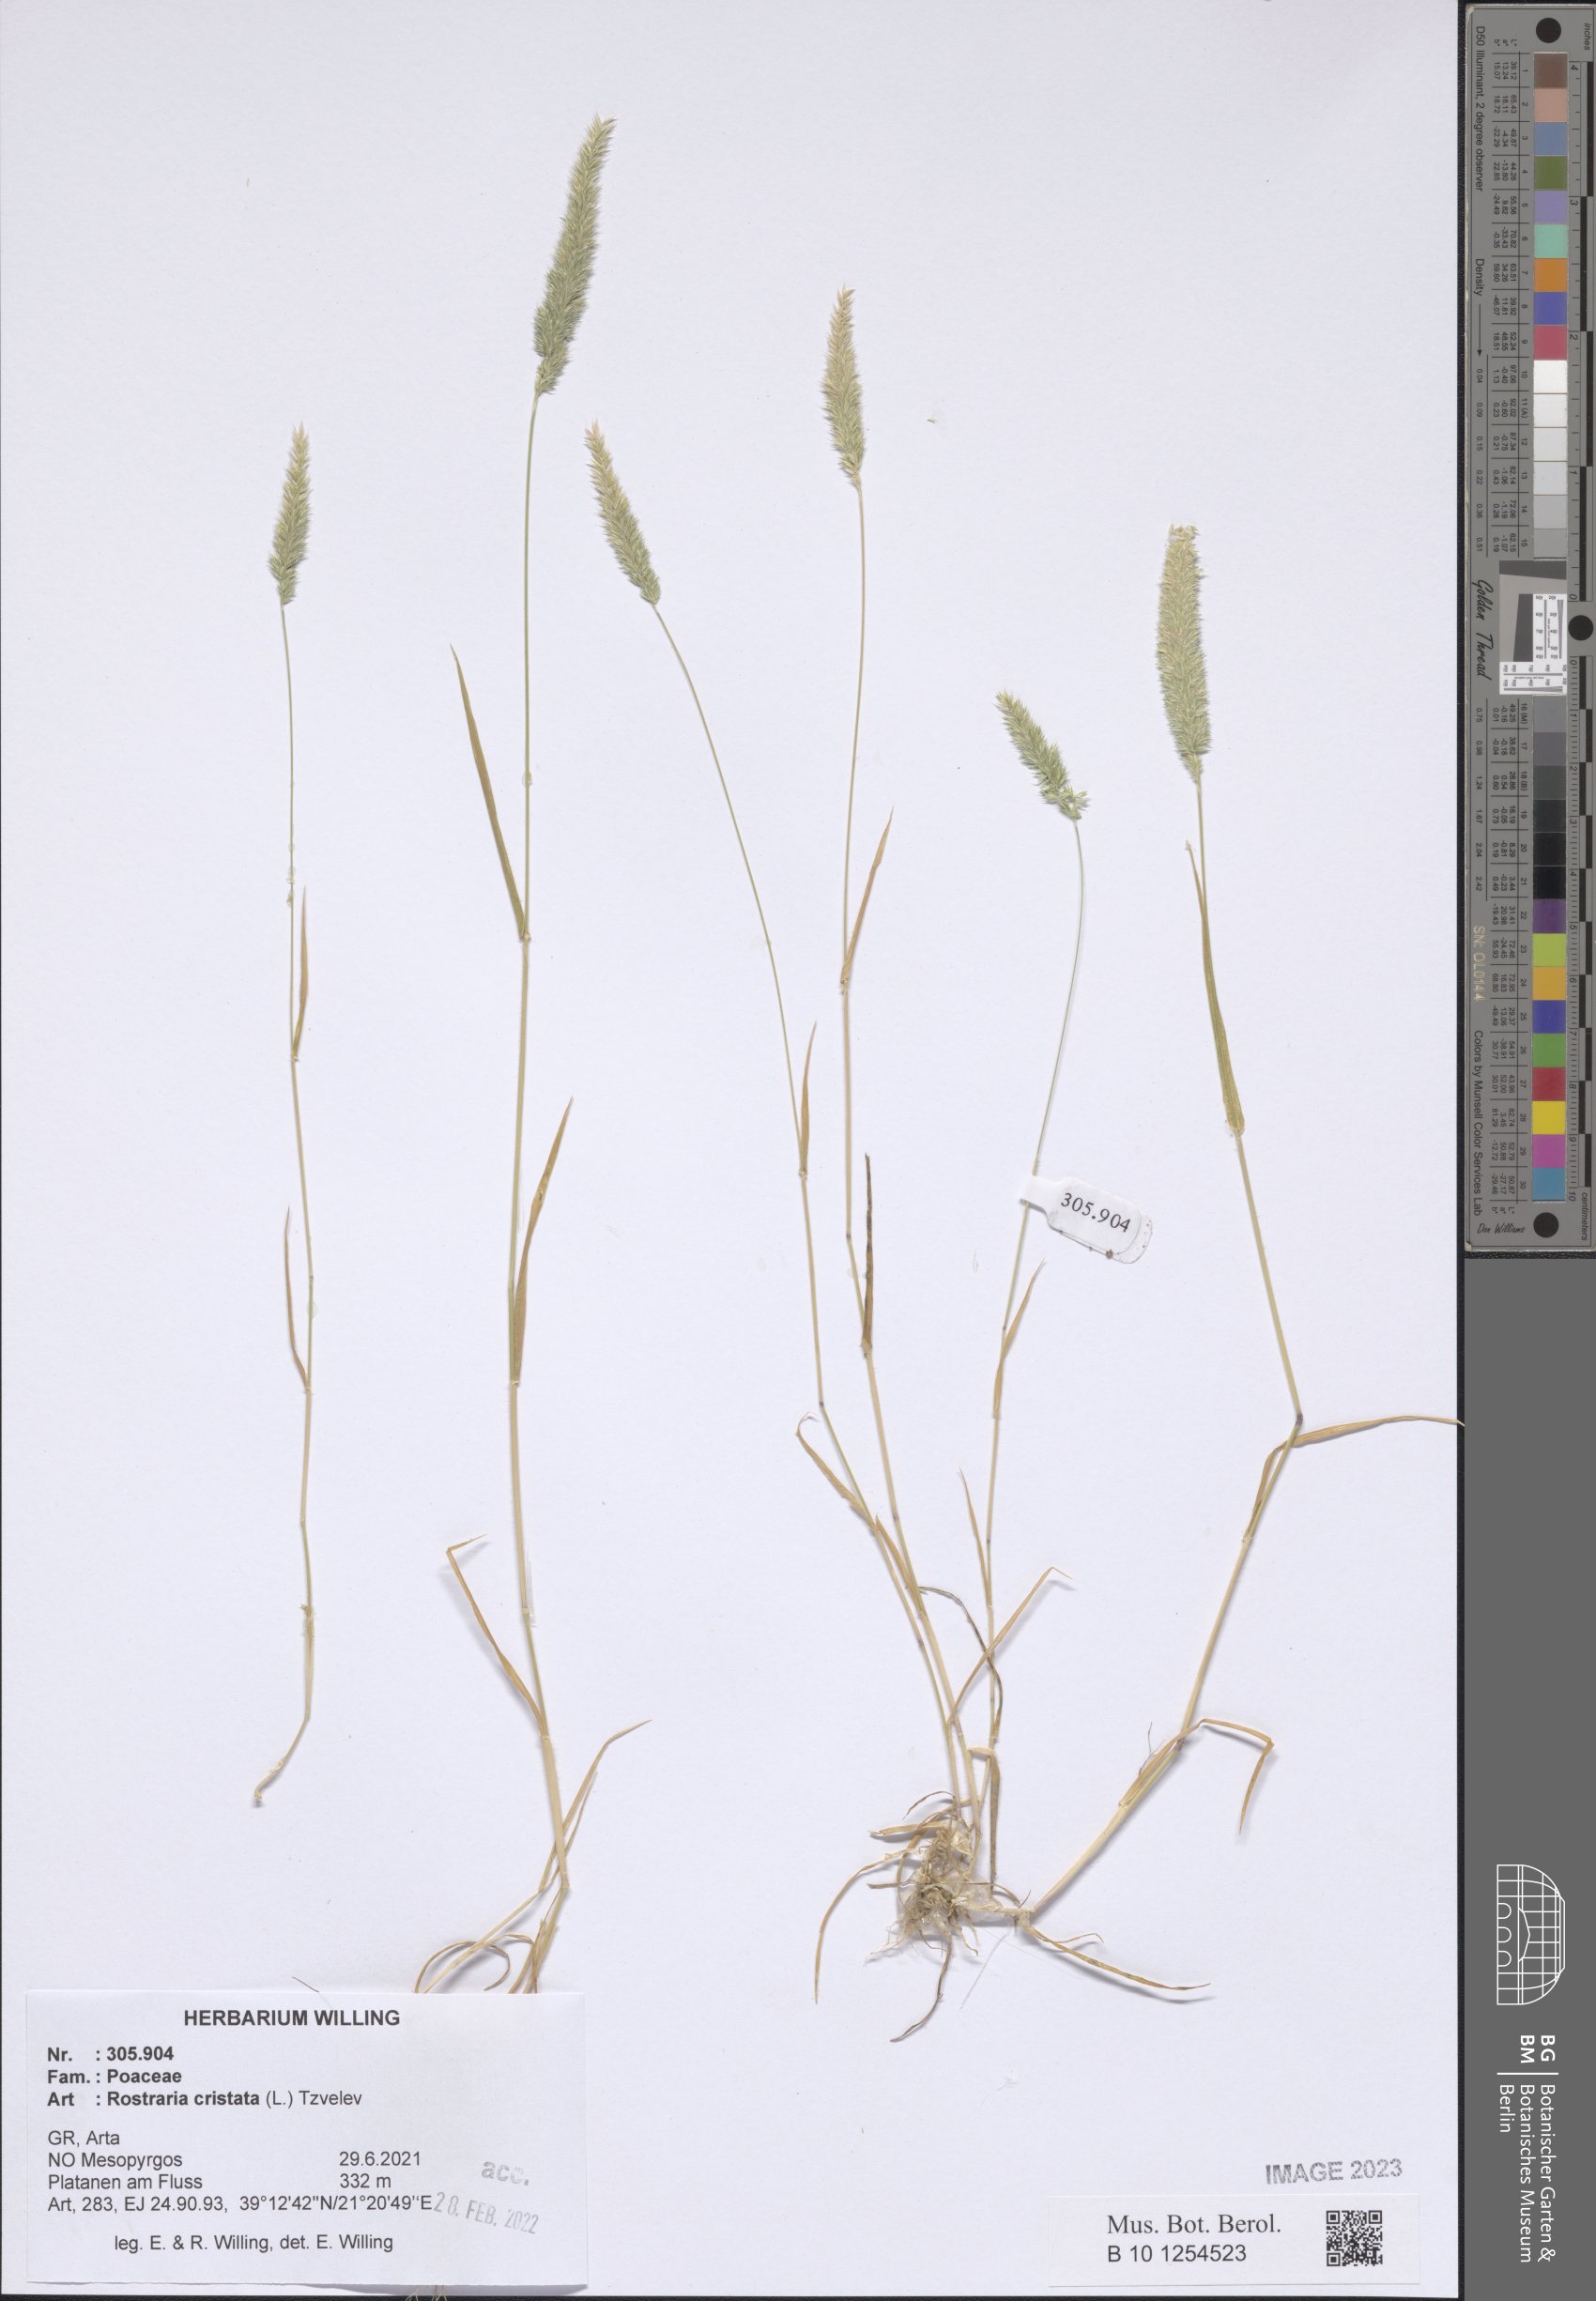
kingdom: Plantae
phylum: Tracheophyta
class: Liliopsida
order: Poales
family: Poaceae
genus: Rostraria
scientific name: Rostraria cristata
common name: Mediterranean hair-grass
